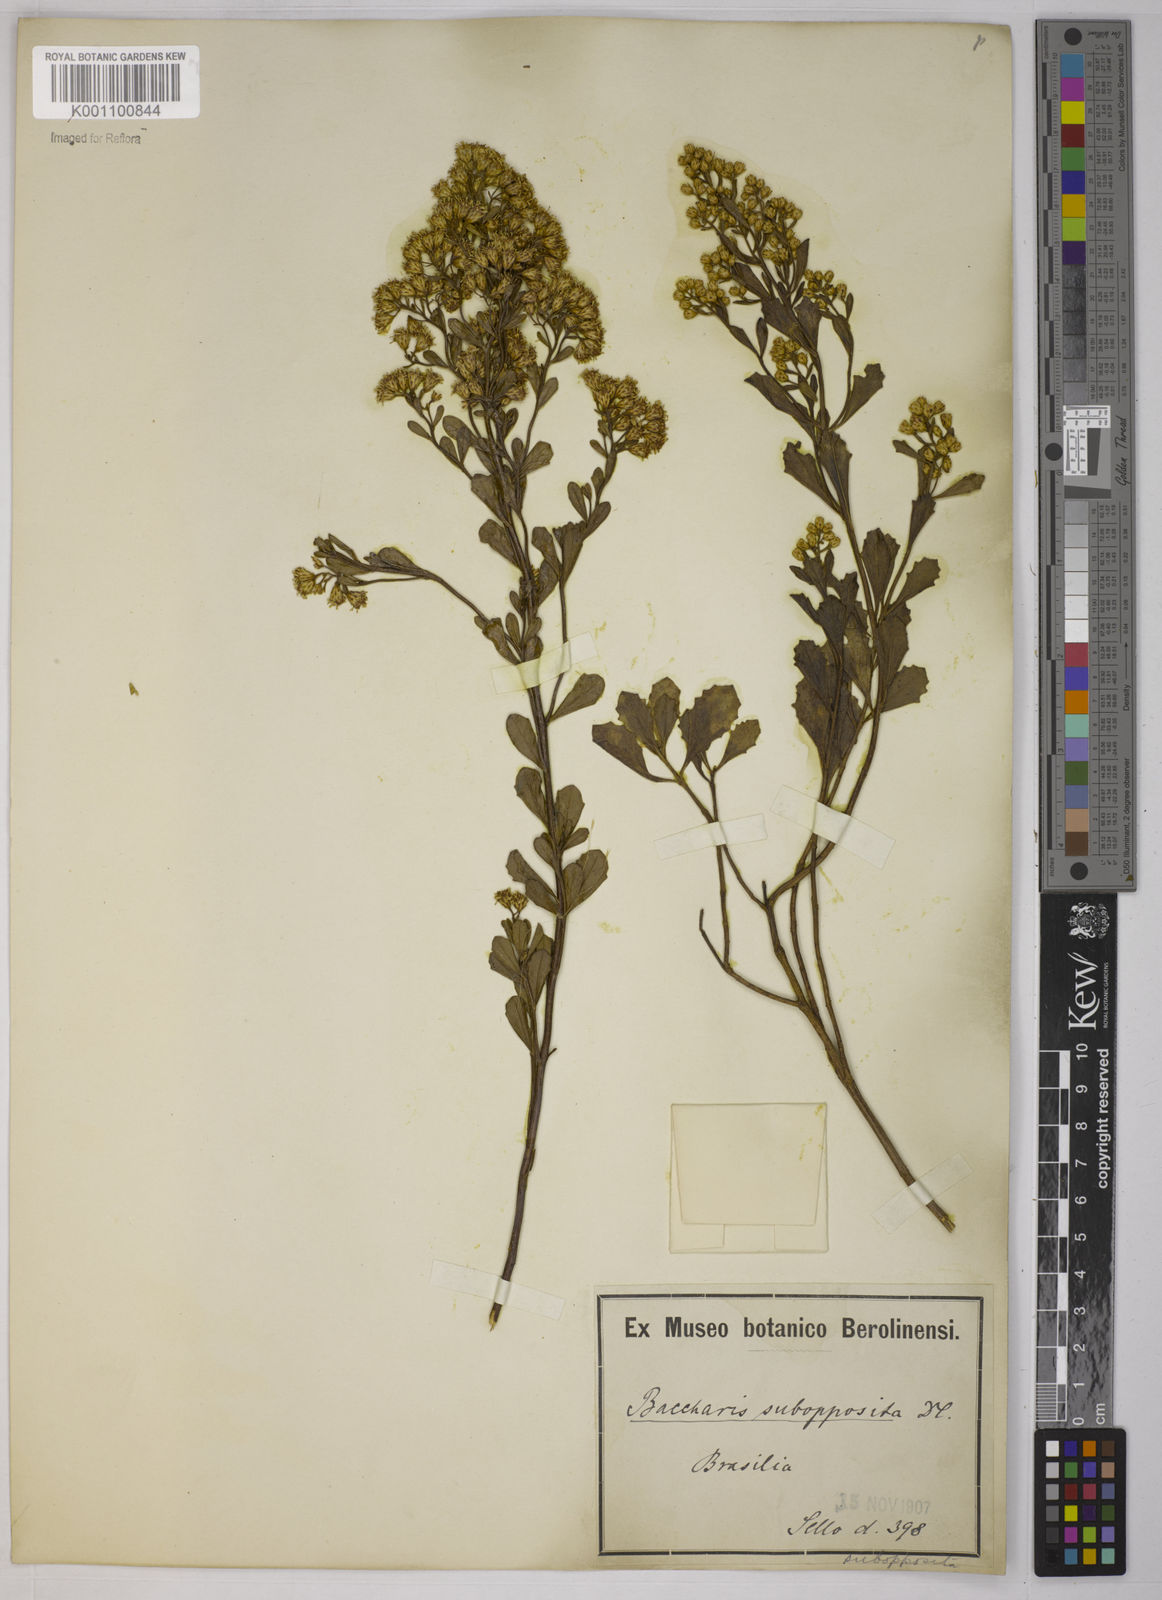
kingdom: Plantae
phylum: Tracheophyta
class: Magnoliopsida
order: Asterales
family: Asteraceae
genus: Baccharis
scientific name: Baccharis subopposita
